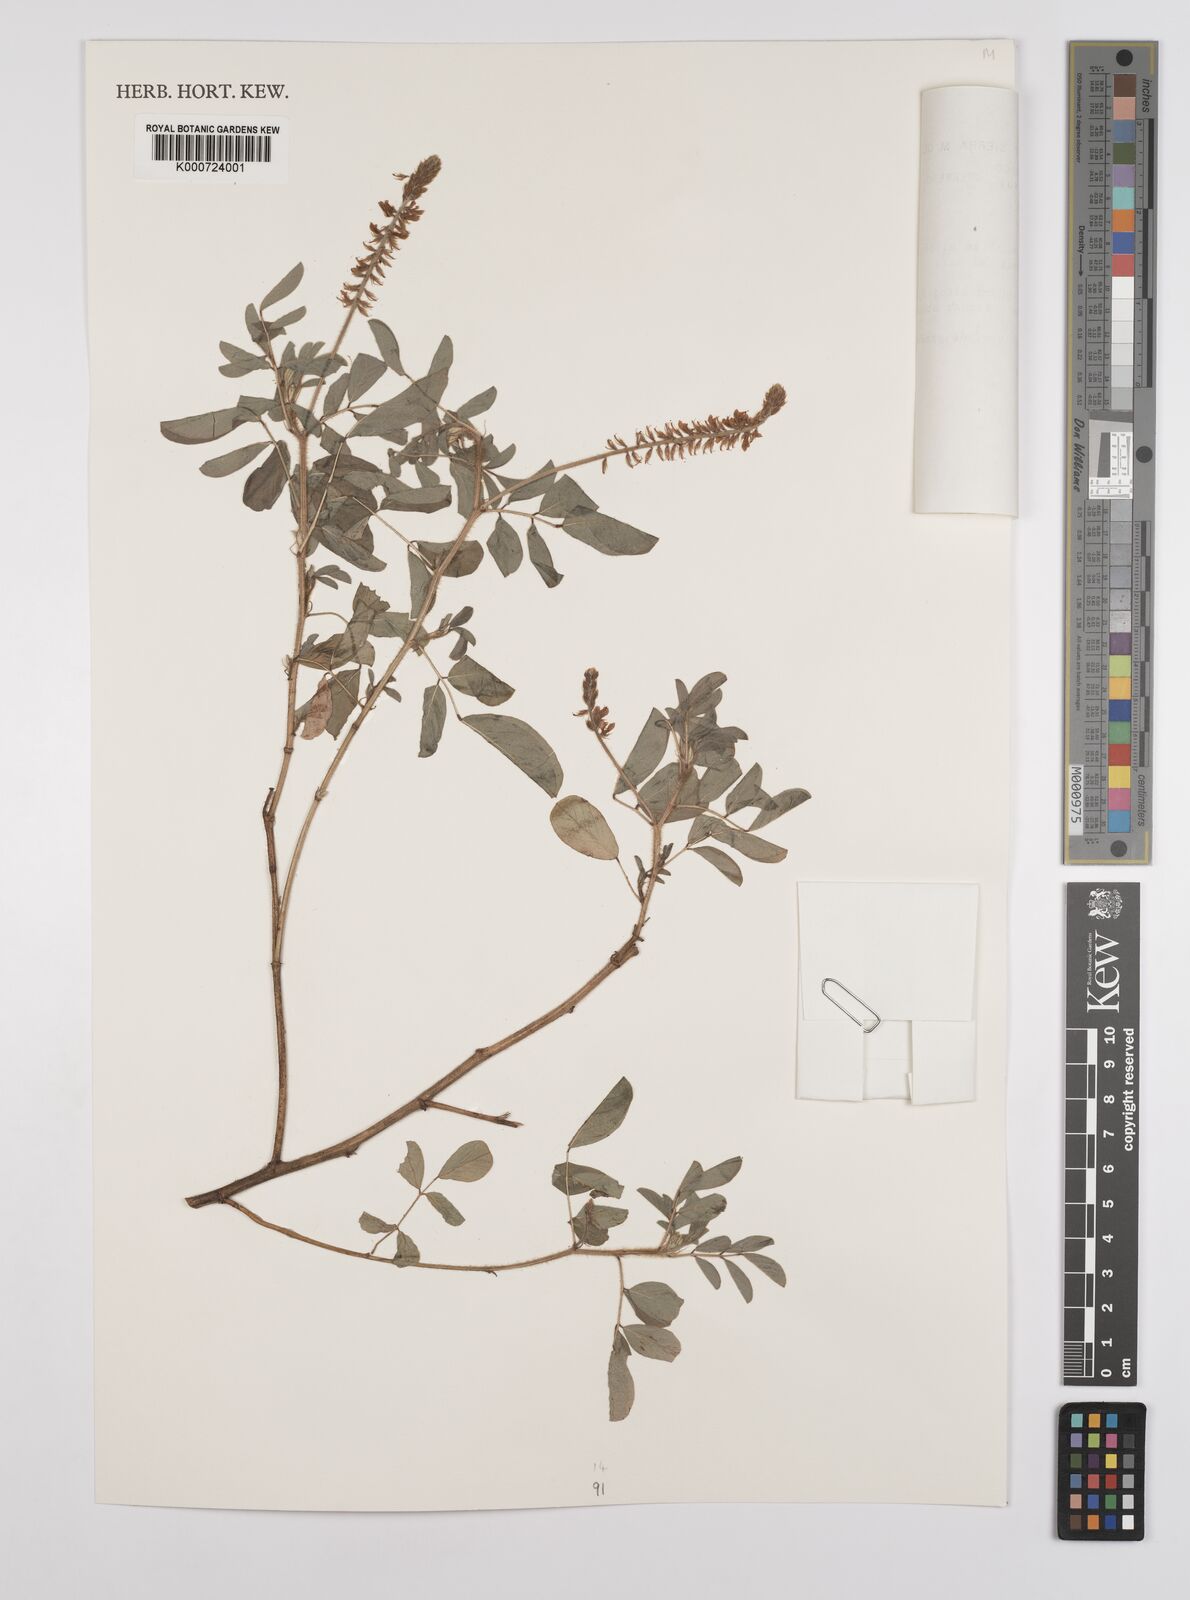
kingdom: Plantae
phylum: Tracheophyta
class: Magnoliopsida
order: Fabales
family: Fabaceae
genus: Indigofera
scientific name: Indigofera hirsuta
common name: Hairy indigo
